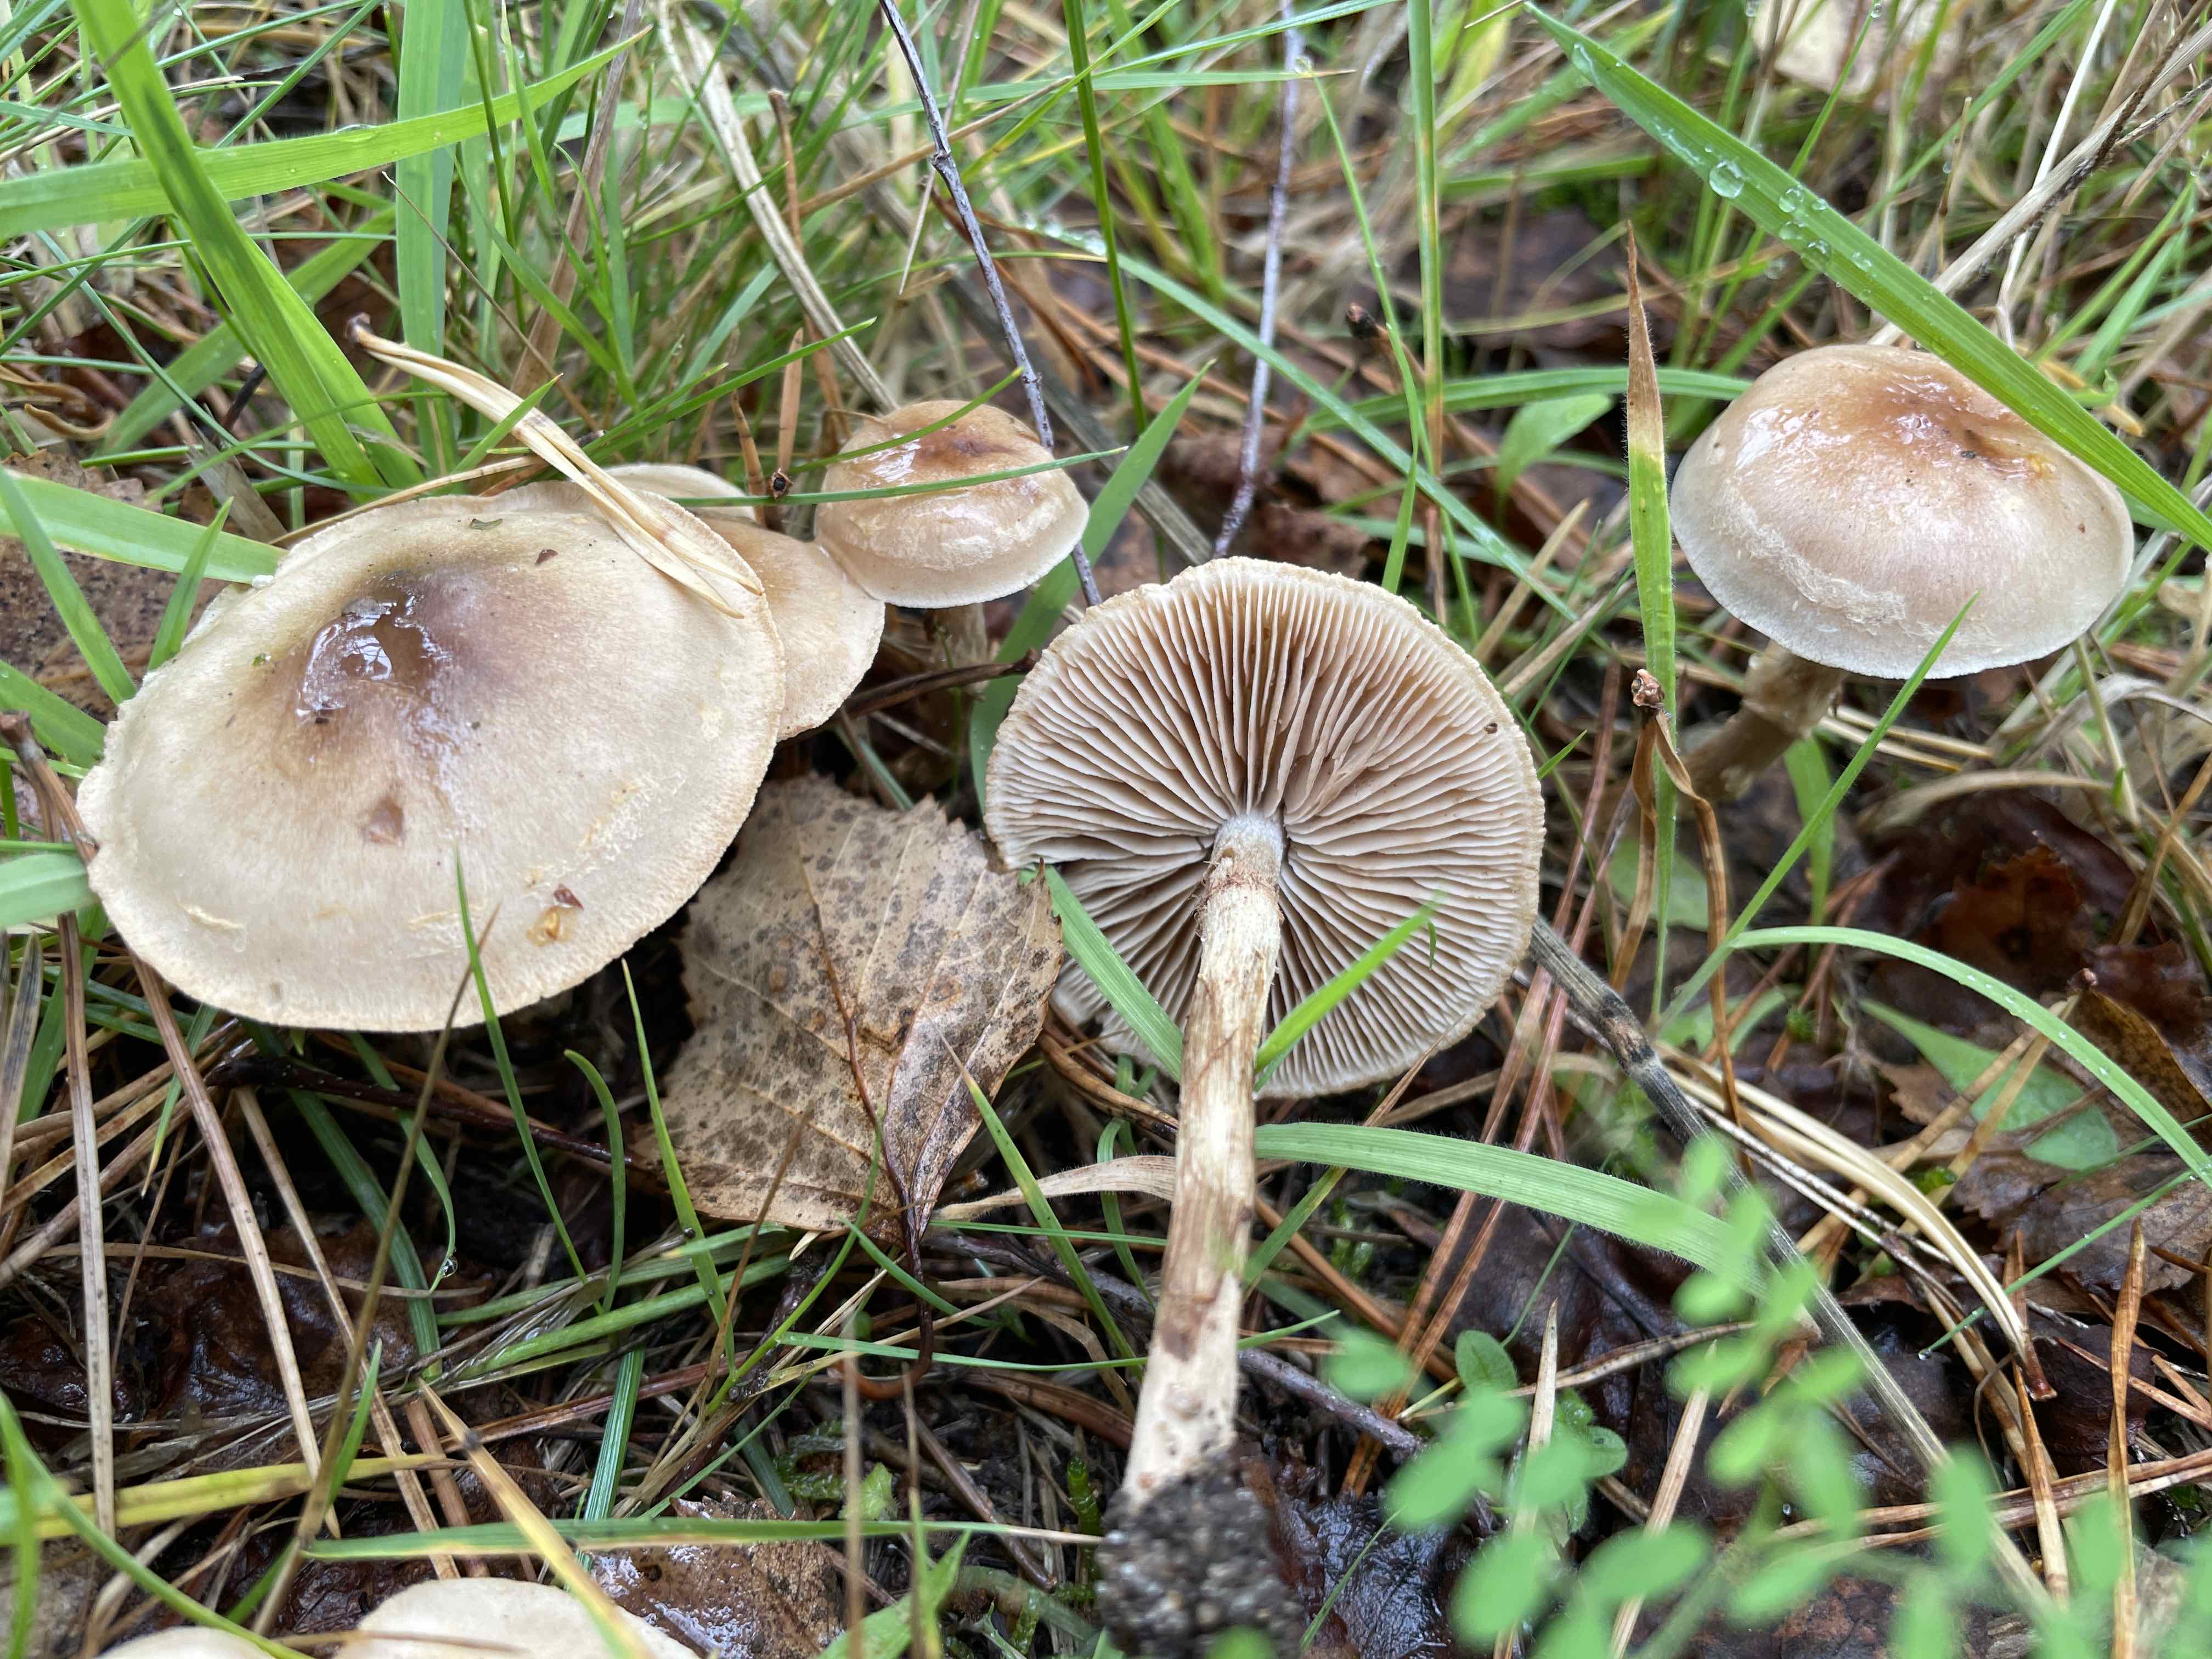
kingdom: Fungi
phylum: Basidiomycota
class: Agaricomycetes
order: Agaricales
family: Hymenogastraceae
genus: Hebeloma
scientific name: Hebeloma mesophaeum
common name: lerbrun tåreblad
